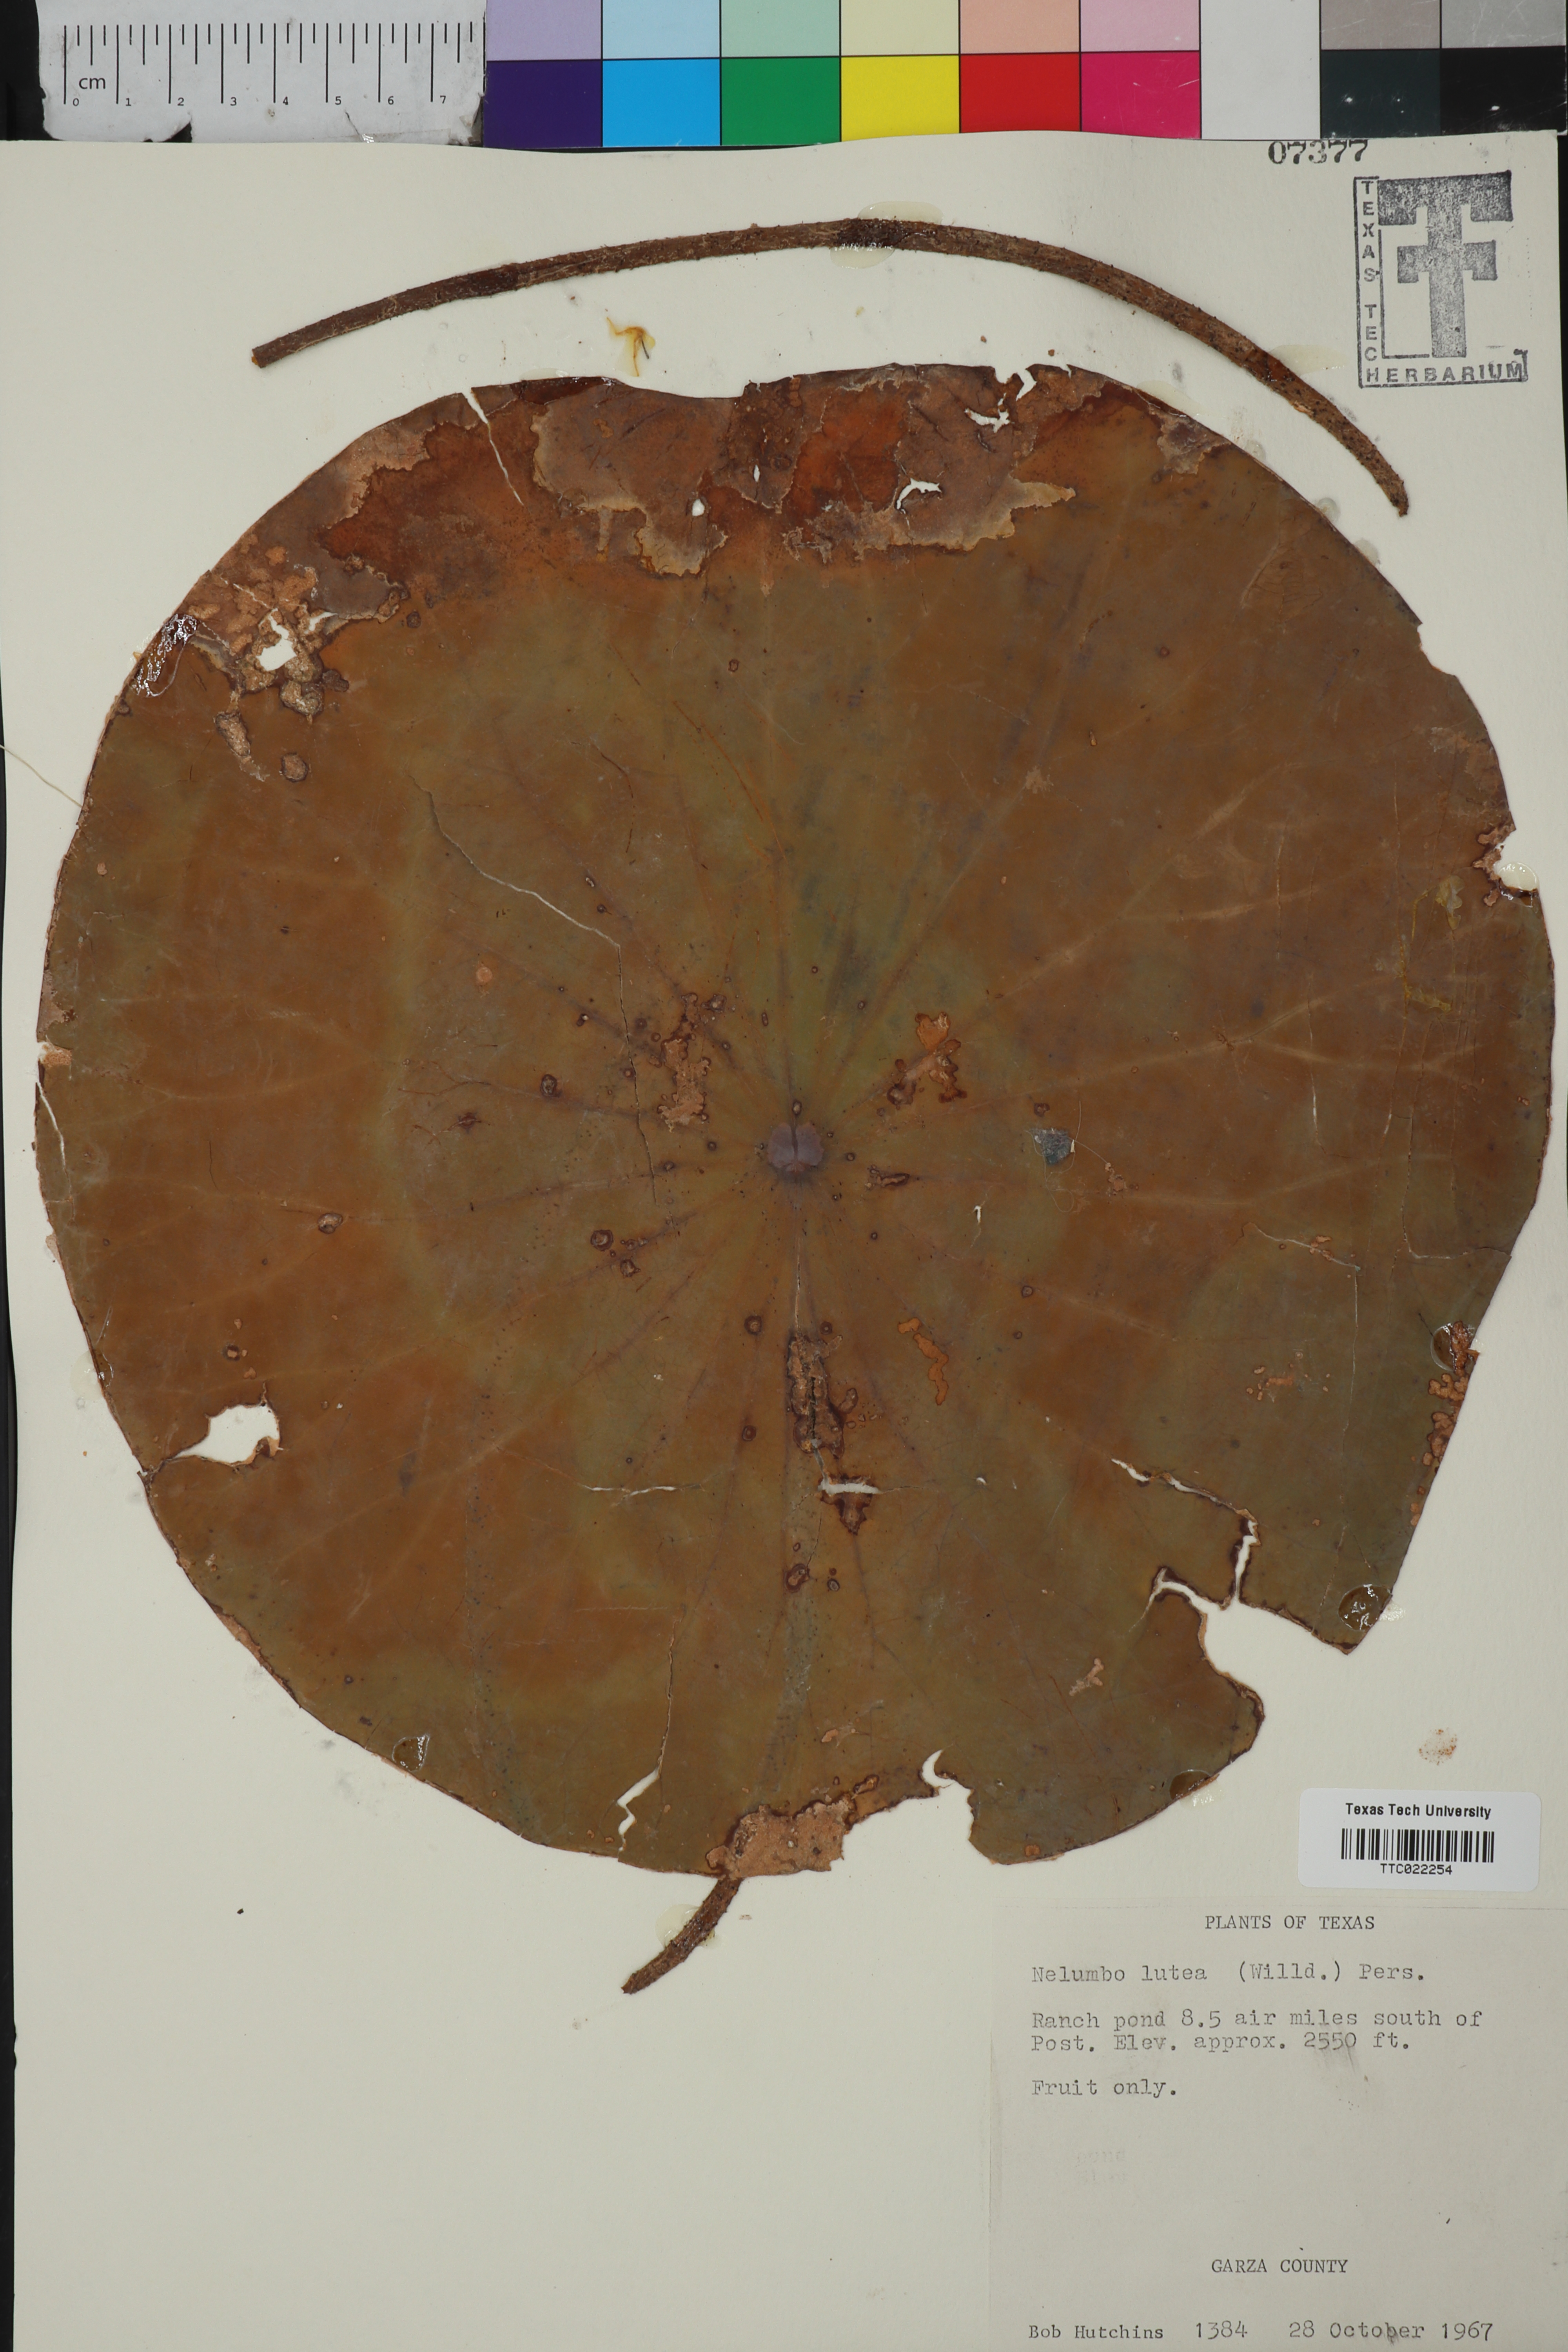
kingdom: Plantae
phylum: Tracheophyta
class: Magnoliopsida
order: Proteales
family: Nelumbonaceae
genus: Nelumbo
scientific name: Nelumbo lutea
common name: American lotus
